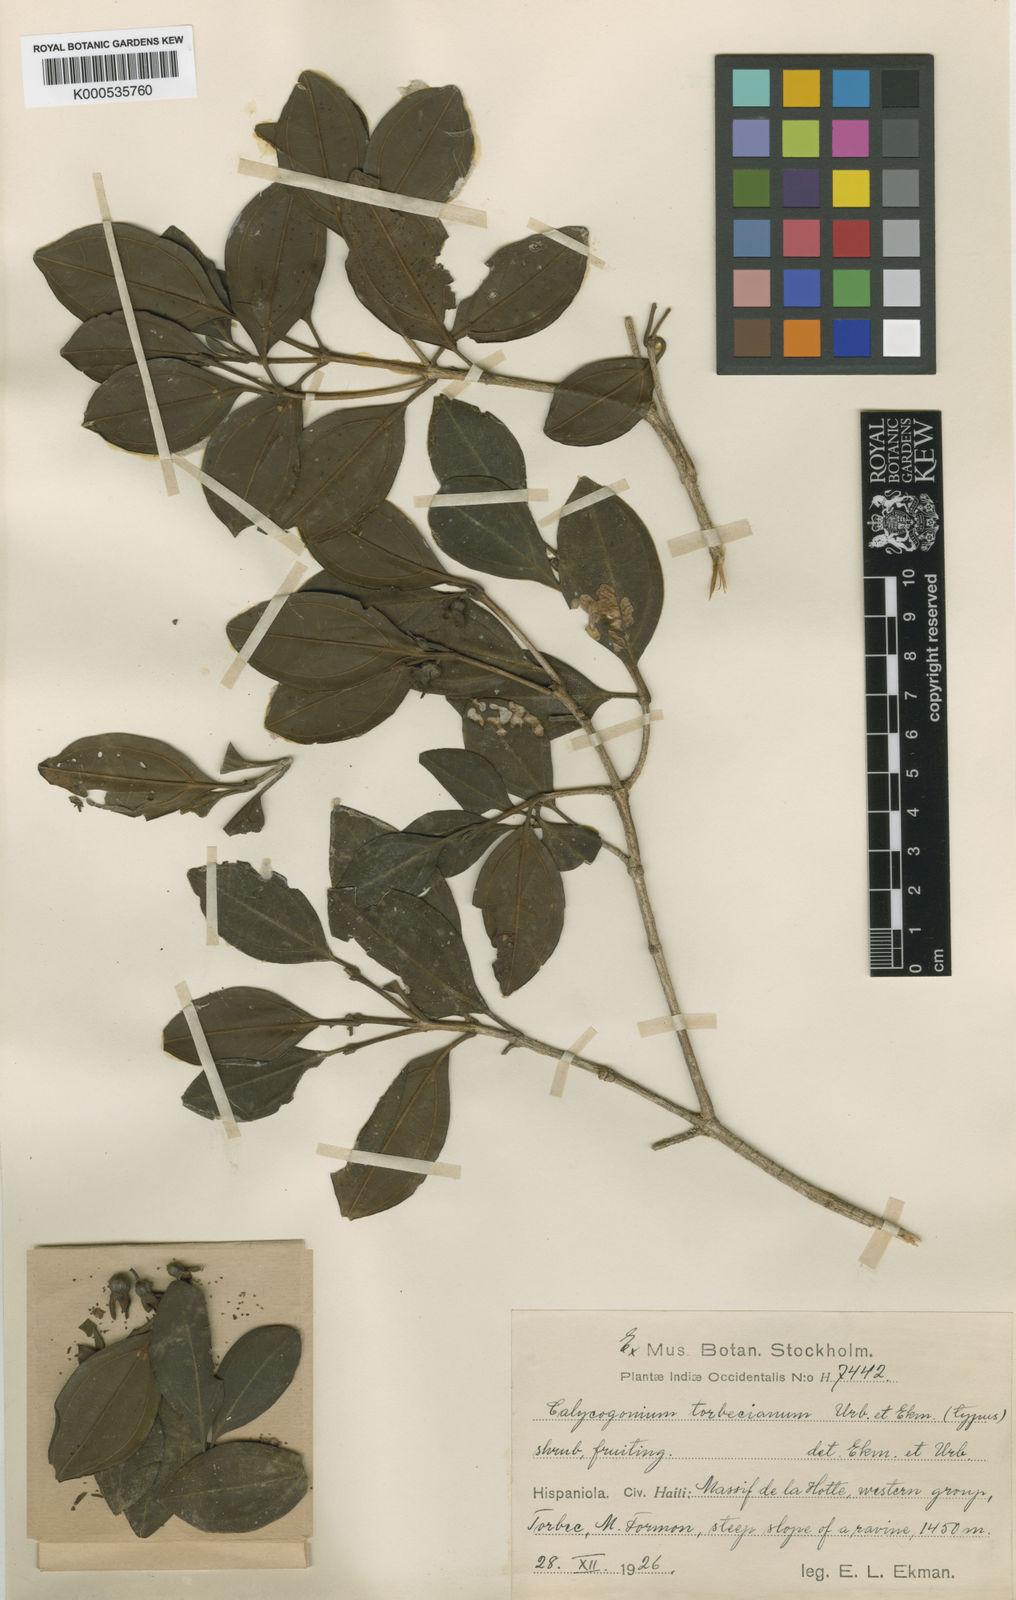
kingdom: Plantae
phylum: Tracheophyta
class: Magnoliopsida
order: Myrtales
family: Melastomataceae
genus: Miconia
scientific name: Miconia torbeciana
